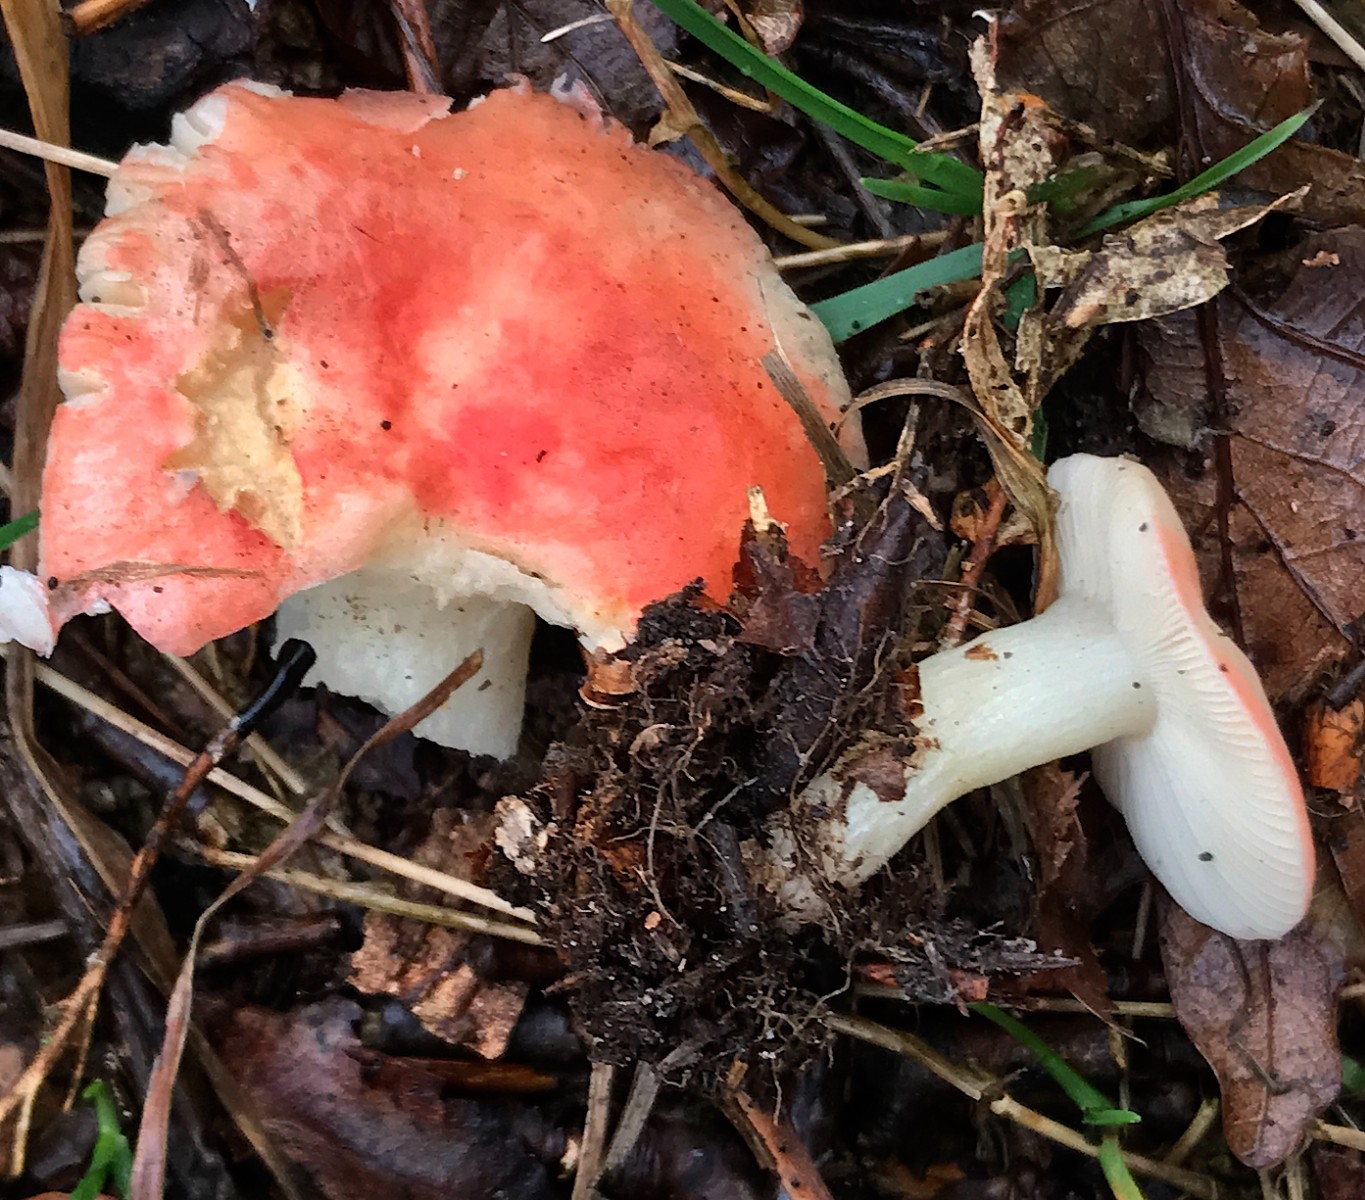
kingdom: Fungi
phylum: Basidiomycota
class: Agaricomycetes
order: Russulales
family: Russulaceae
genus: Russula
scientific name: Russula nobilis
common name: lille gift-skørhat
